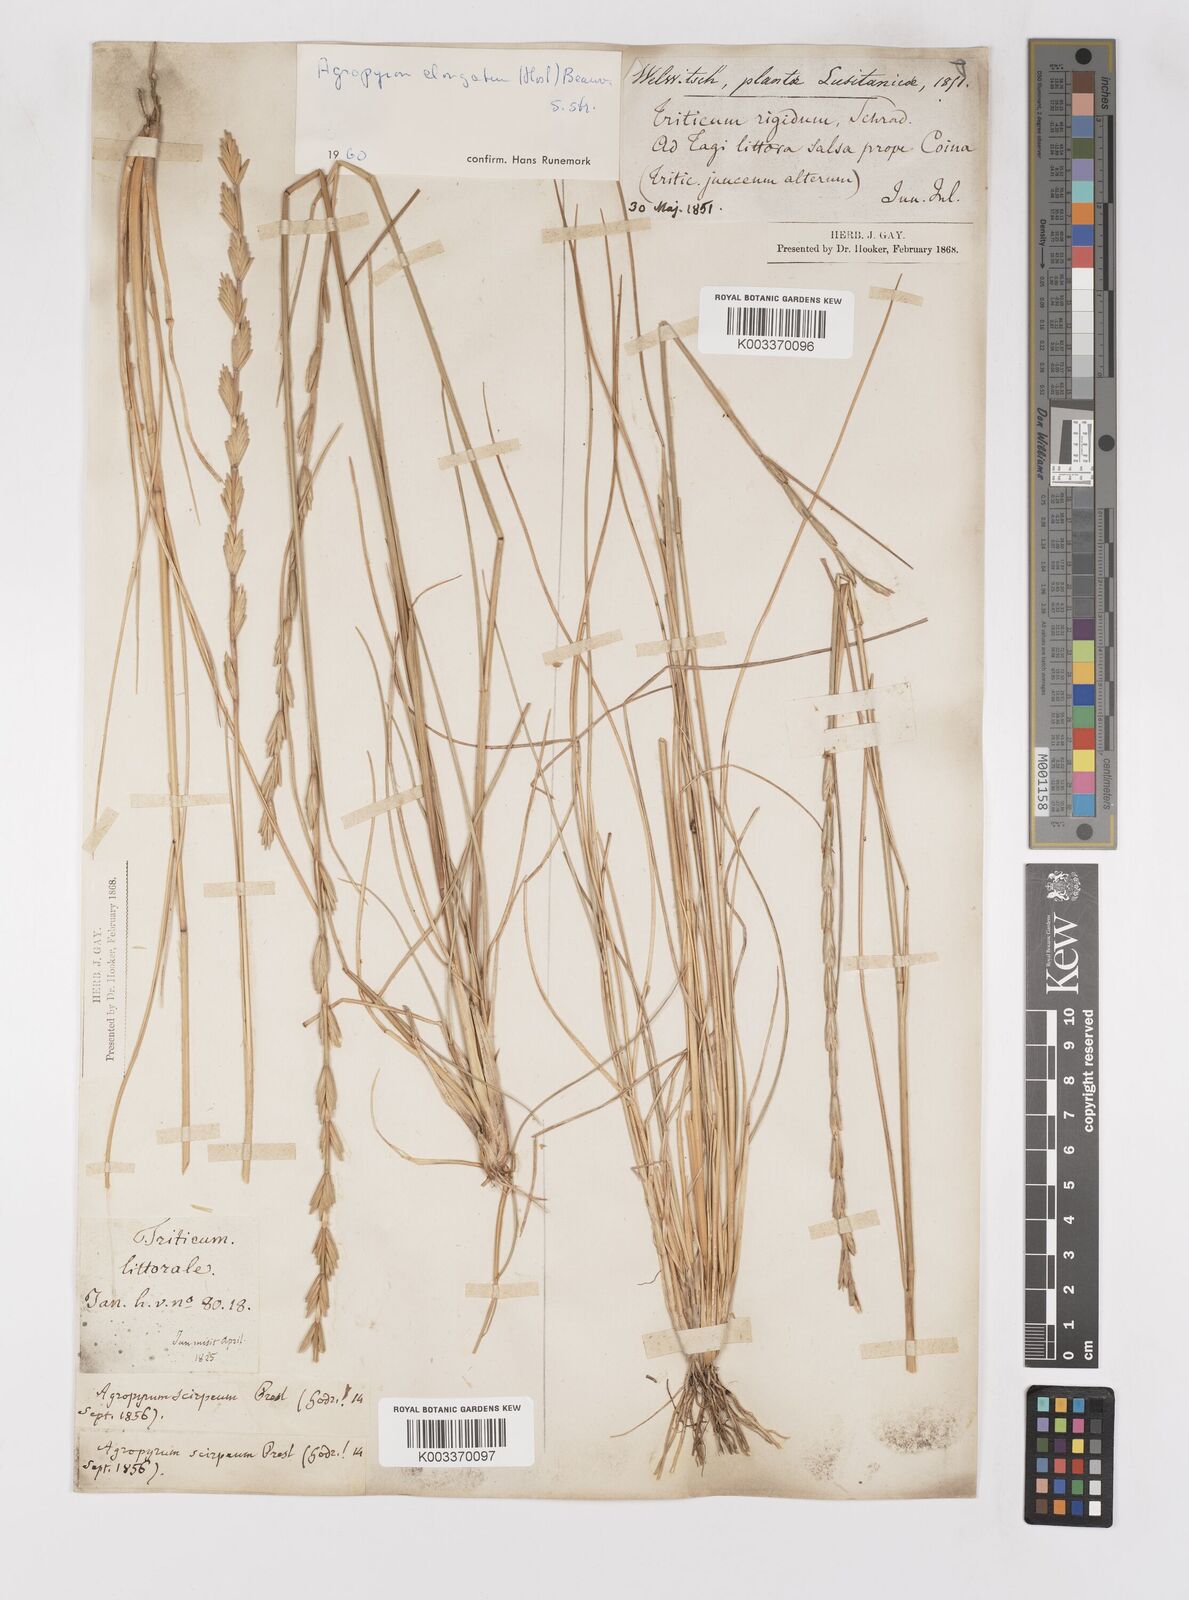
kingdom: Plantae
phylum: Tracheophyta
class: Liliopsida
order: Poales
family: Poaceae
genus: Thinopyrum
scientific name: Thinopyrum elongatum
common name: Tall wheatgrass
